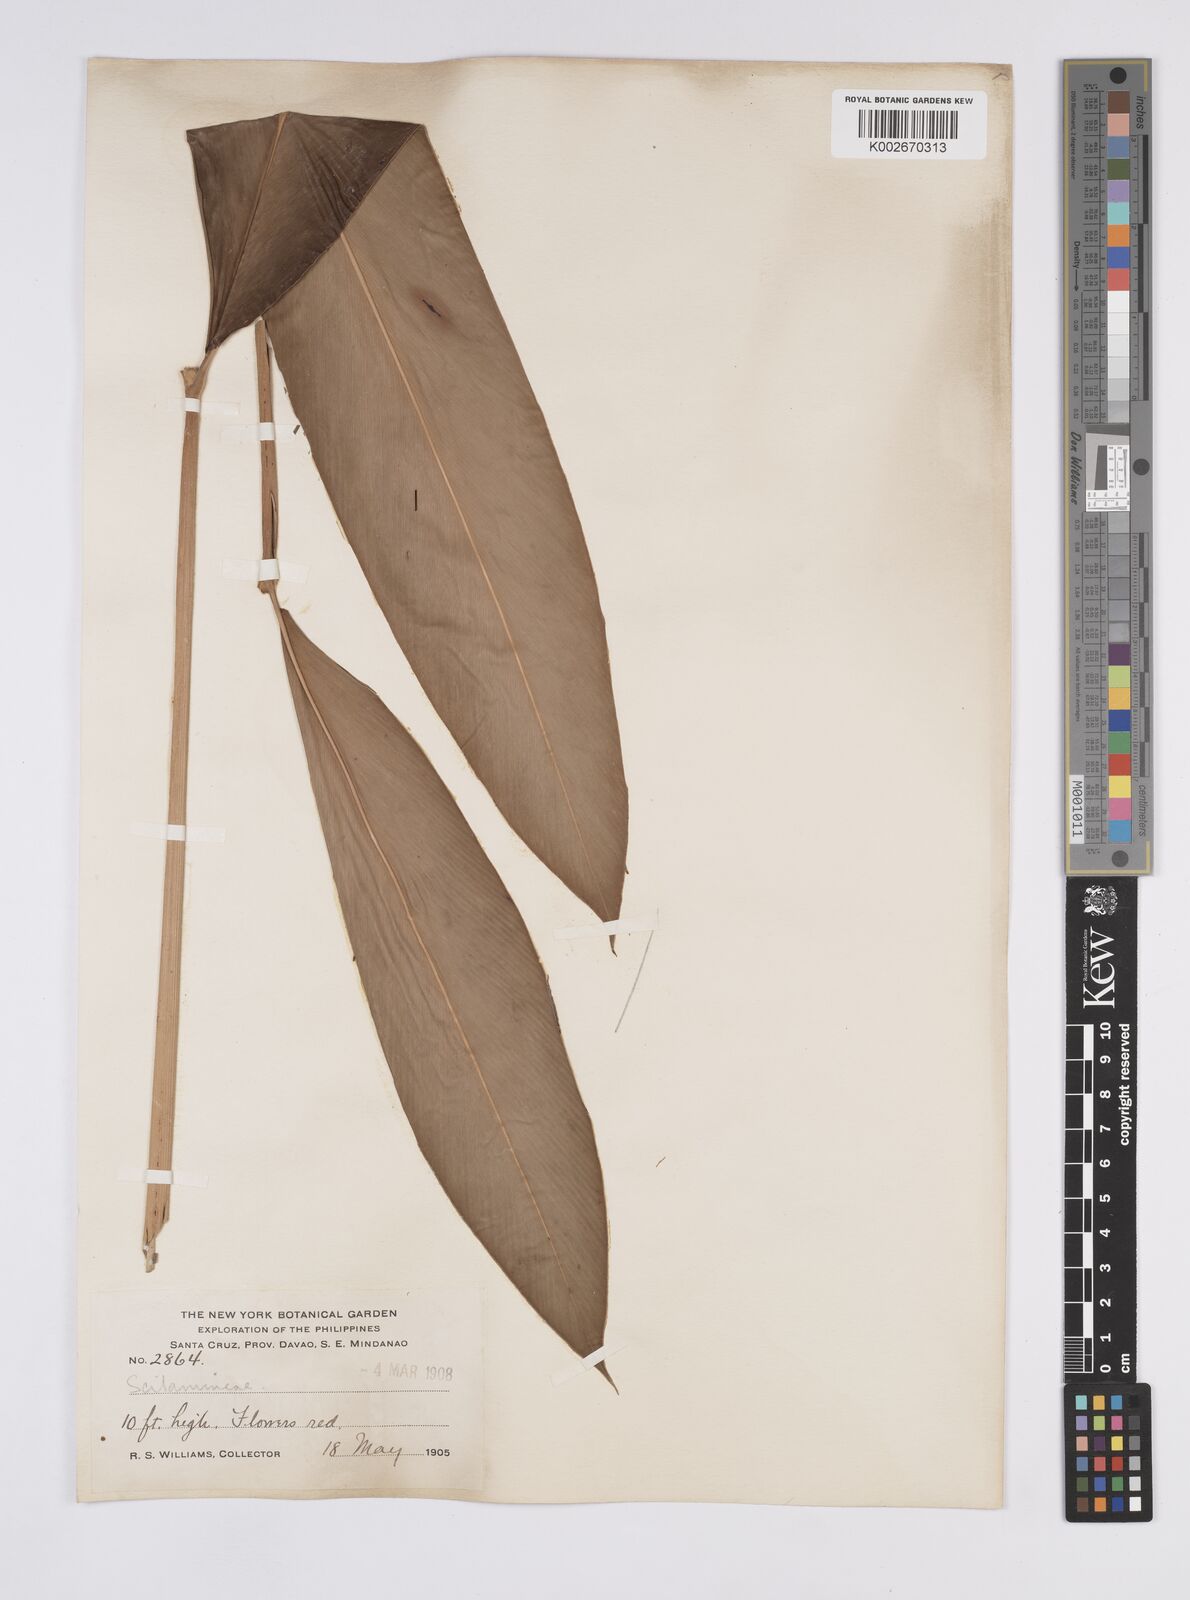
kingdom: Plantae
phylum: Tracheophyta
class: Liliopsida
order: Zingiberales
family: Zingiberaceae
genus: Hornstedtia
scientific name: Hornstedtia
